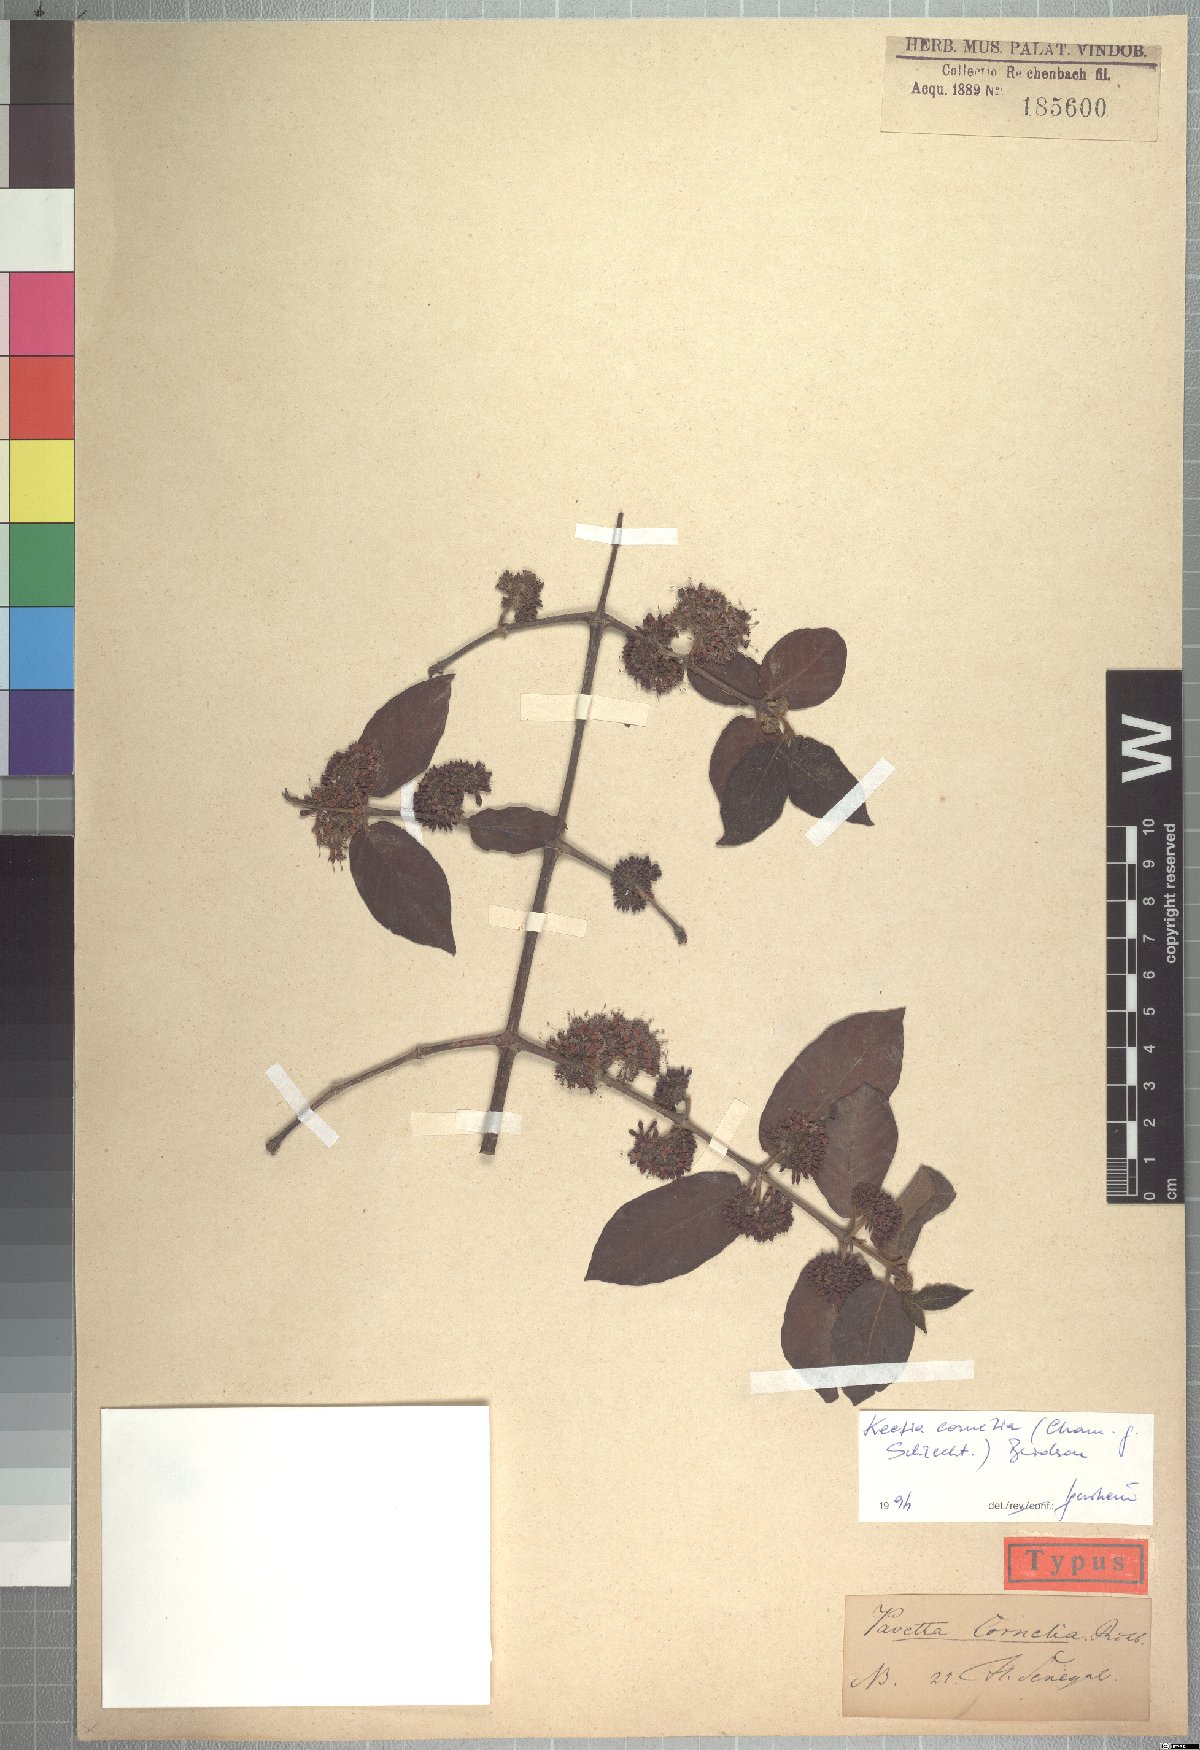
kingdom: Plantae
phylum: Tracheophyta
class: Magnoliopsida
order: Gentianales
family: Rubiaceae
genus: Keetia
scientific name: Keetia cornelia
